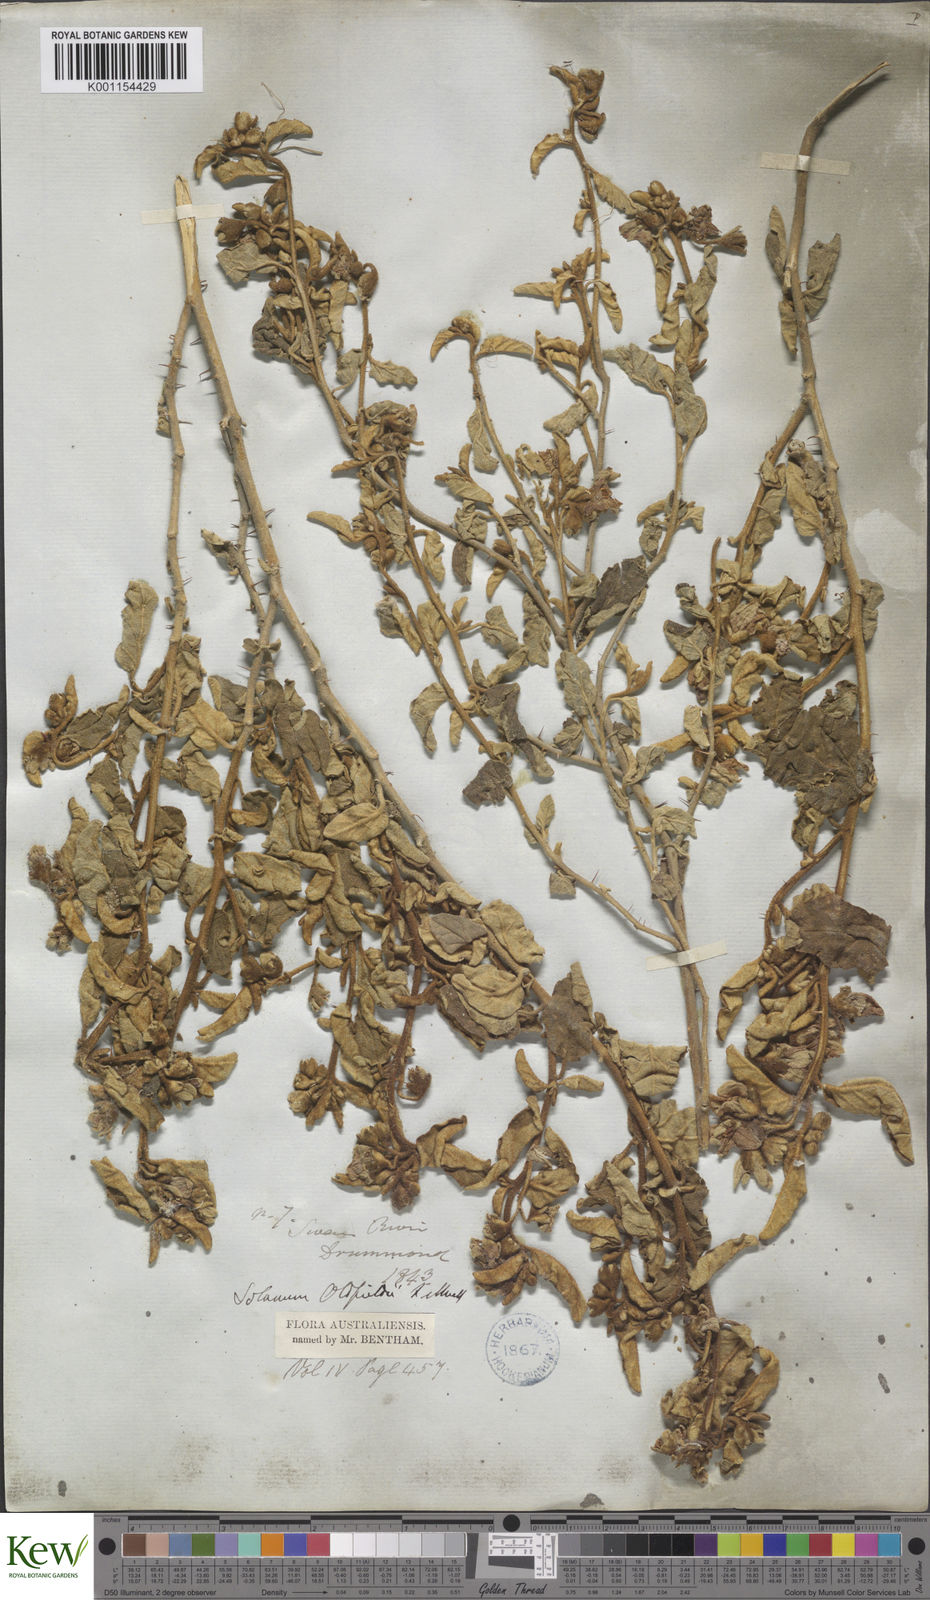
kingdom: Plantae
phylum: Tracheophyta
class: Magnoliopsida
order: Solanales
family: Solanaceae
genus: Solanum
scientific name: Solanum oldfieldii
